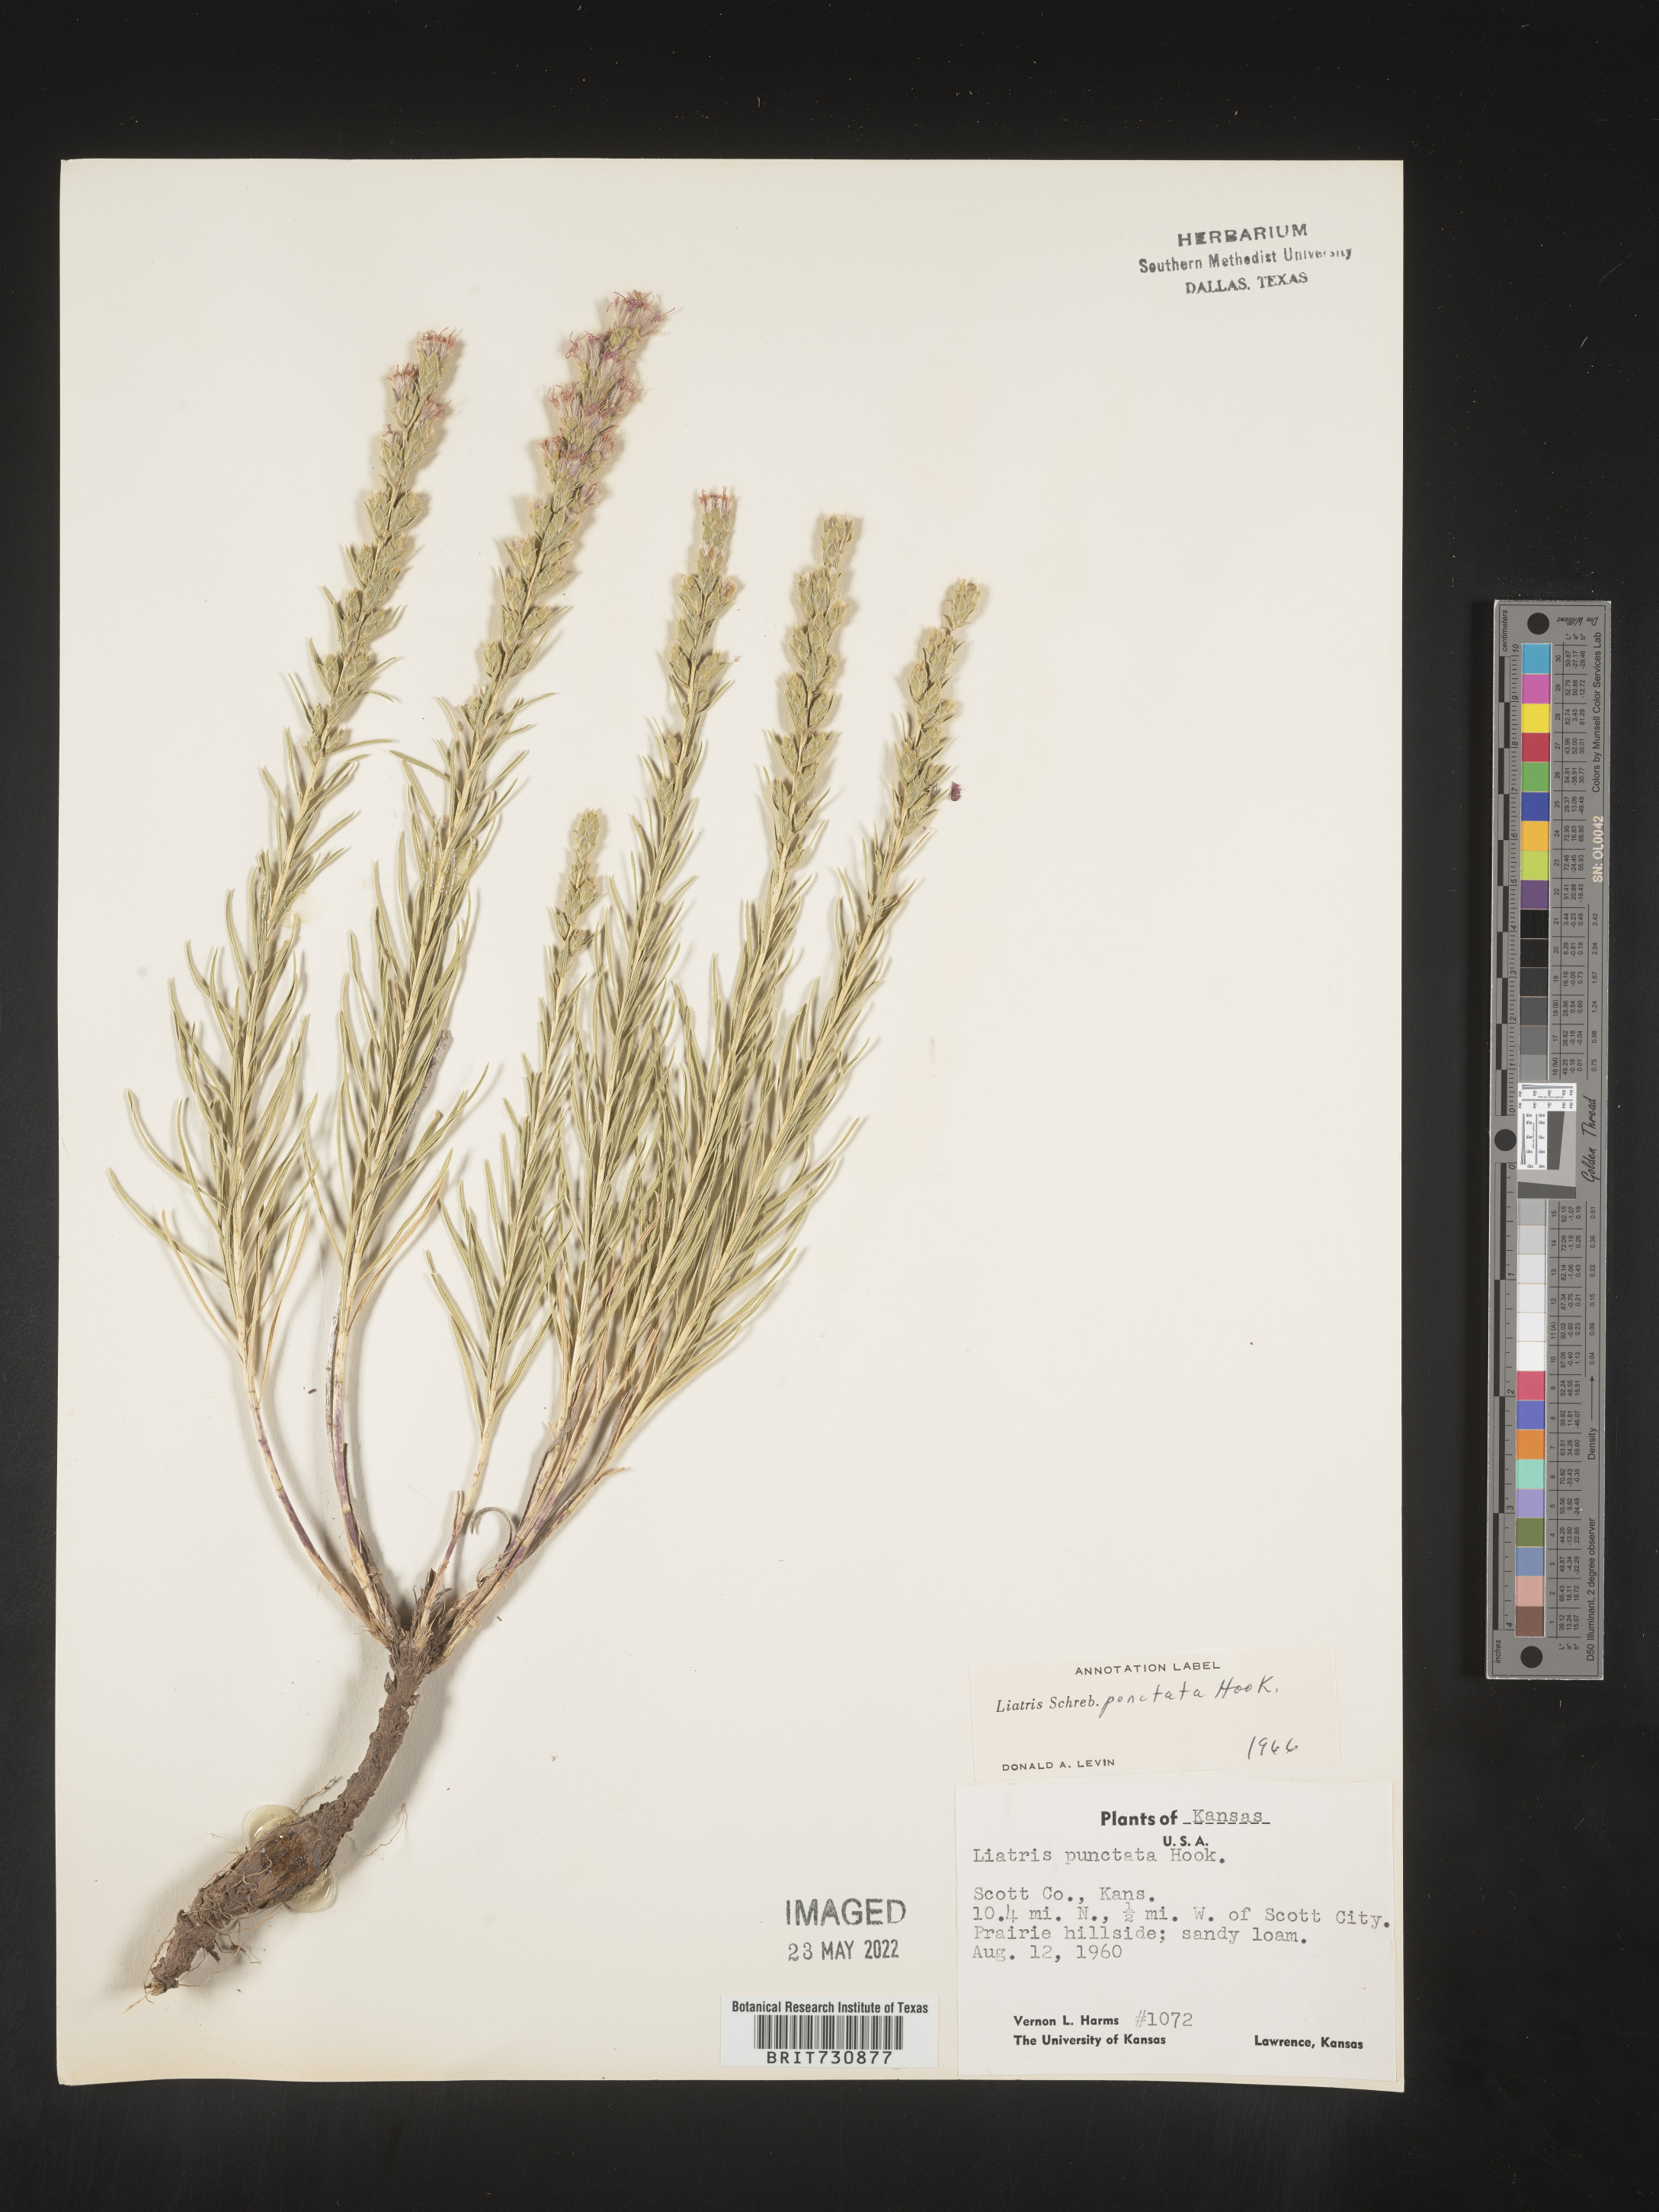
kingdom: Plantae
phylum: Tracheophyta
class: Magnoliopsida
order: Asterales
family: Asteraceae
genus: Liatris
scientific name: Liatris punctata
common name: Dotted gayfeather
